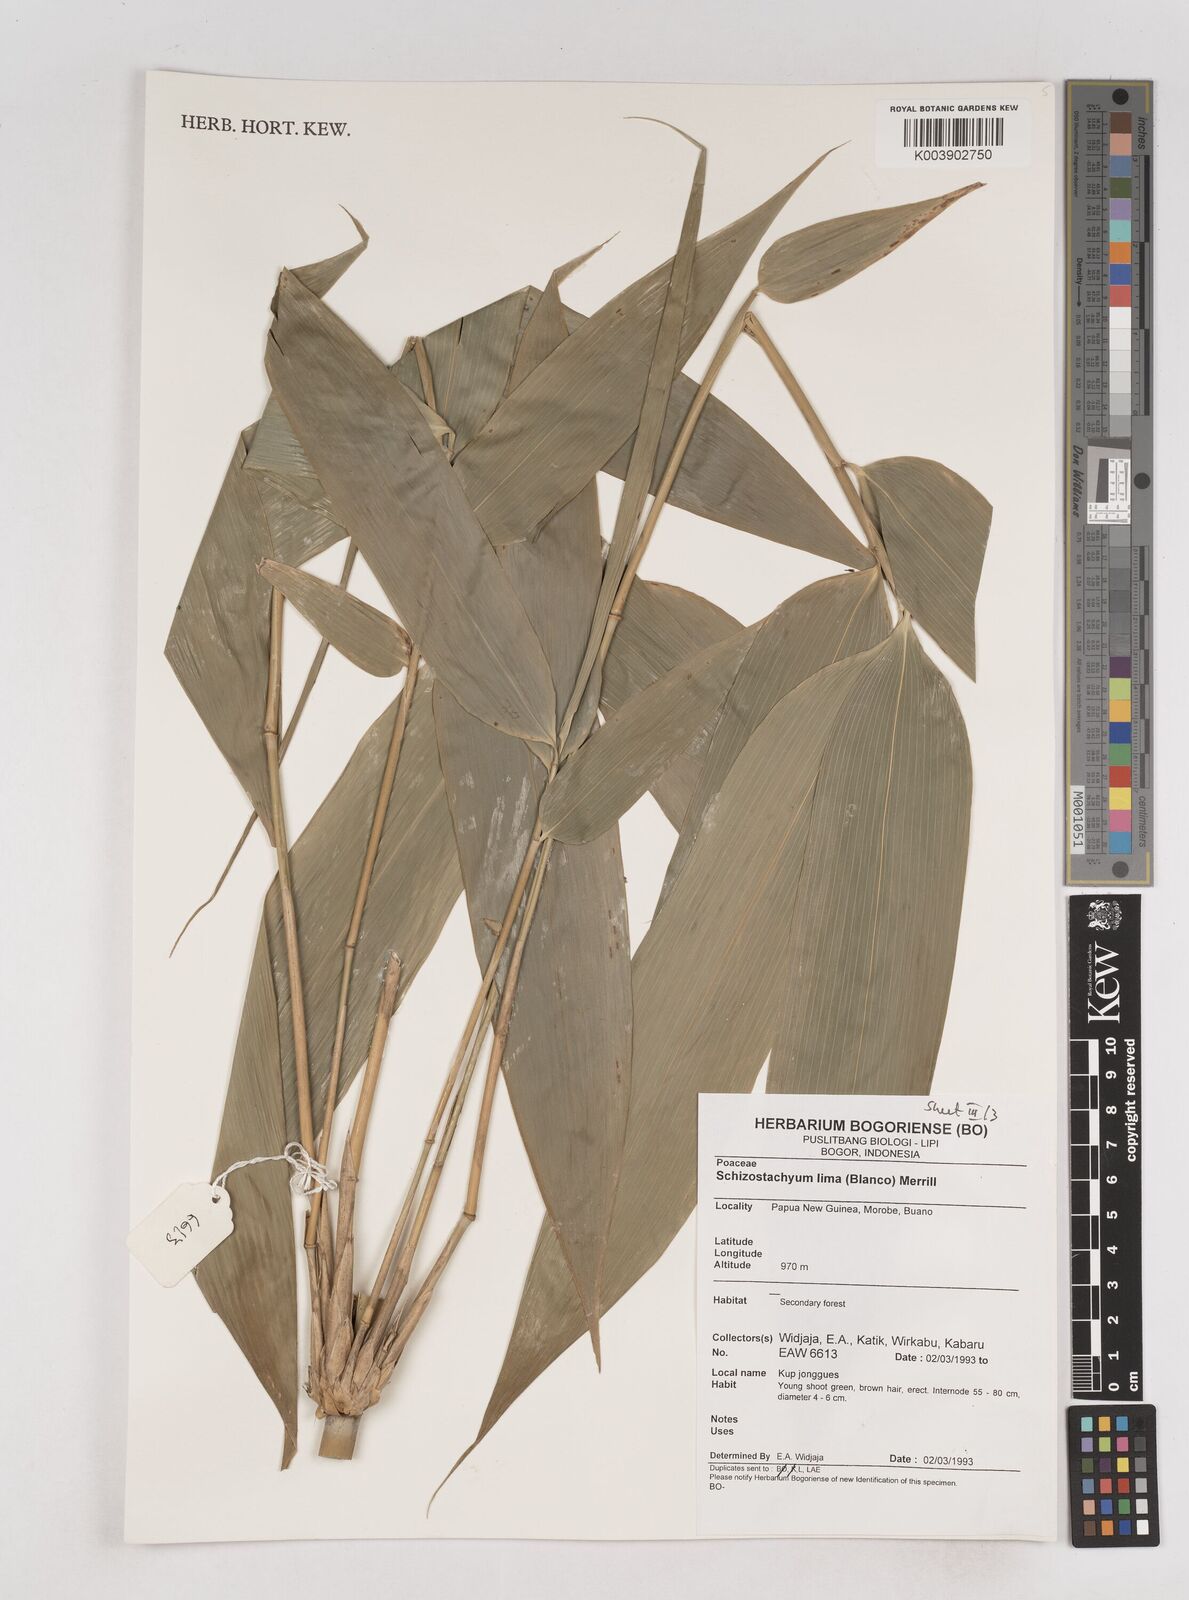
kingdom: Plantae
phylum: Tracheophyta
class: Liliopsida
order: Poales
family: Poaceae
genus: Schizostachyum
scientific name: Schizostachyum lima
